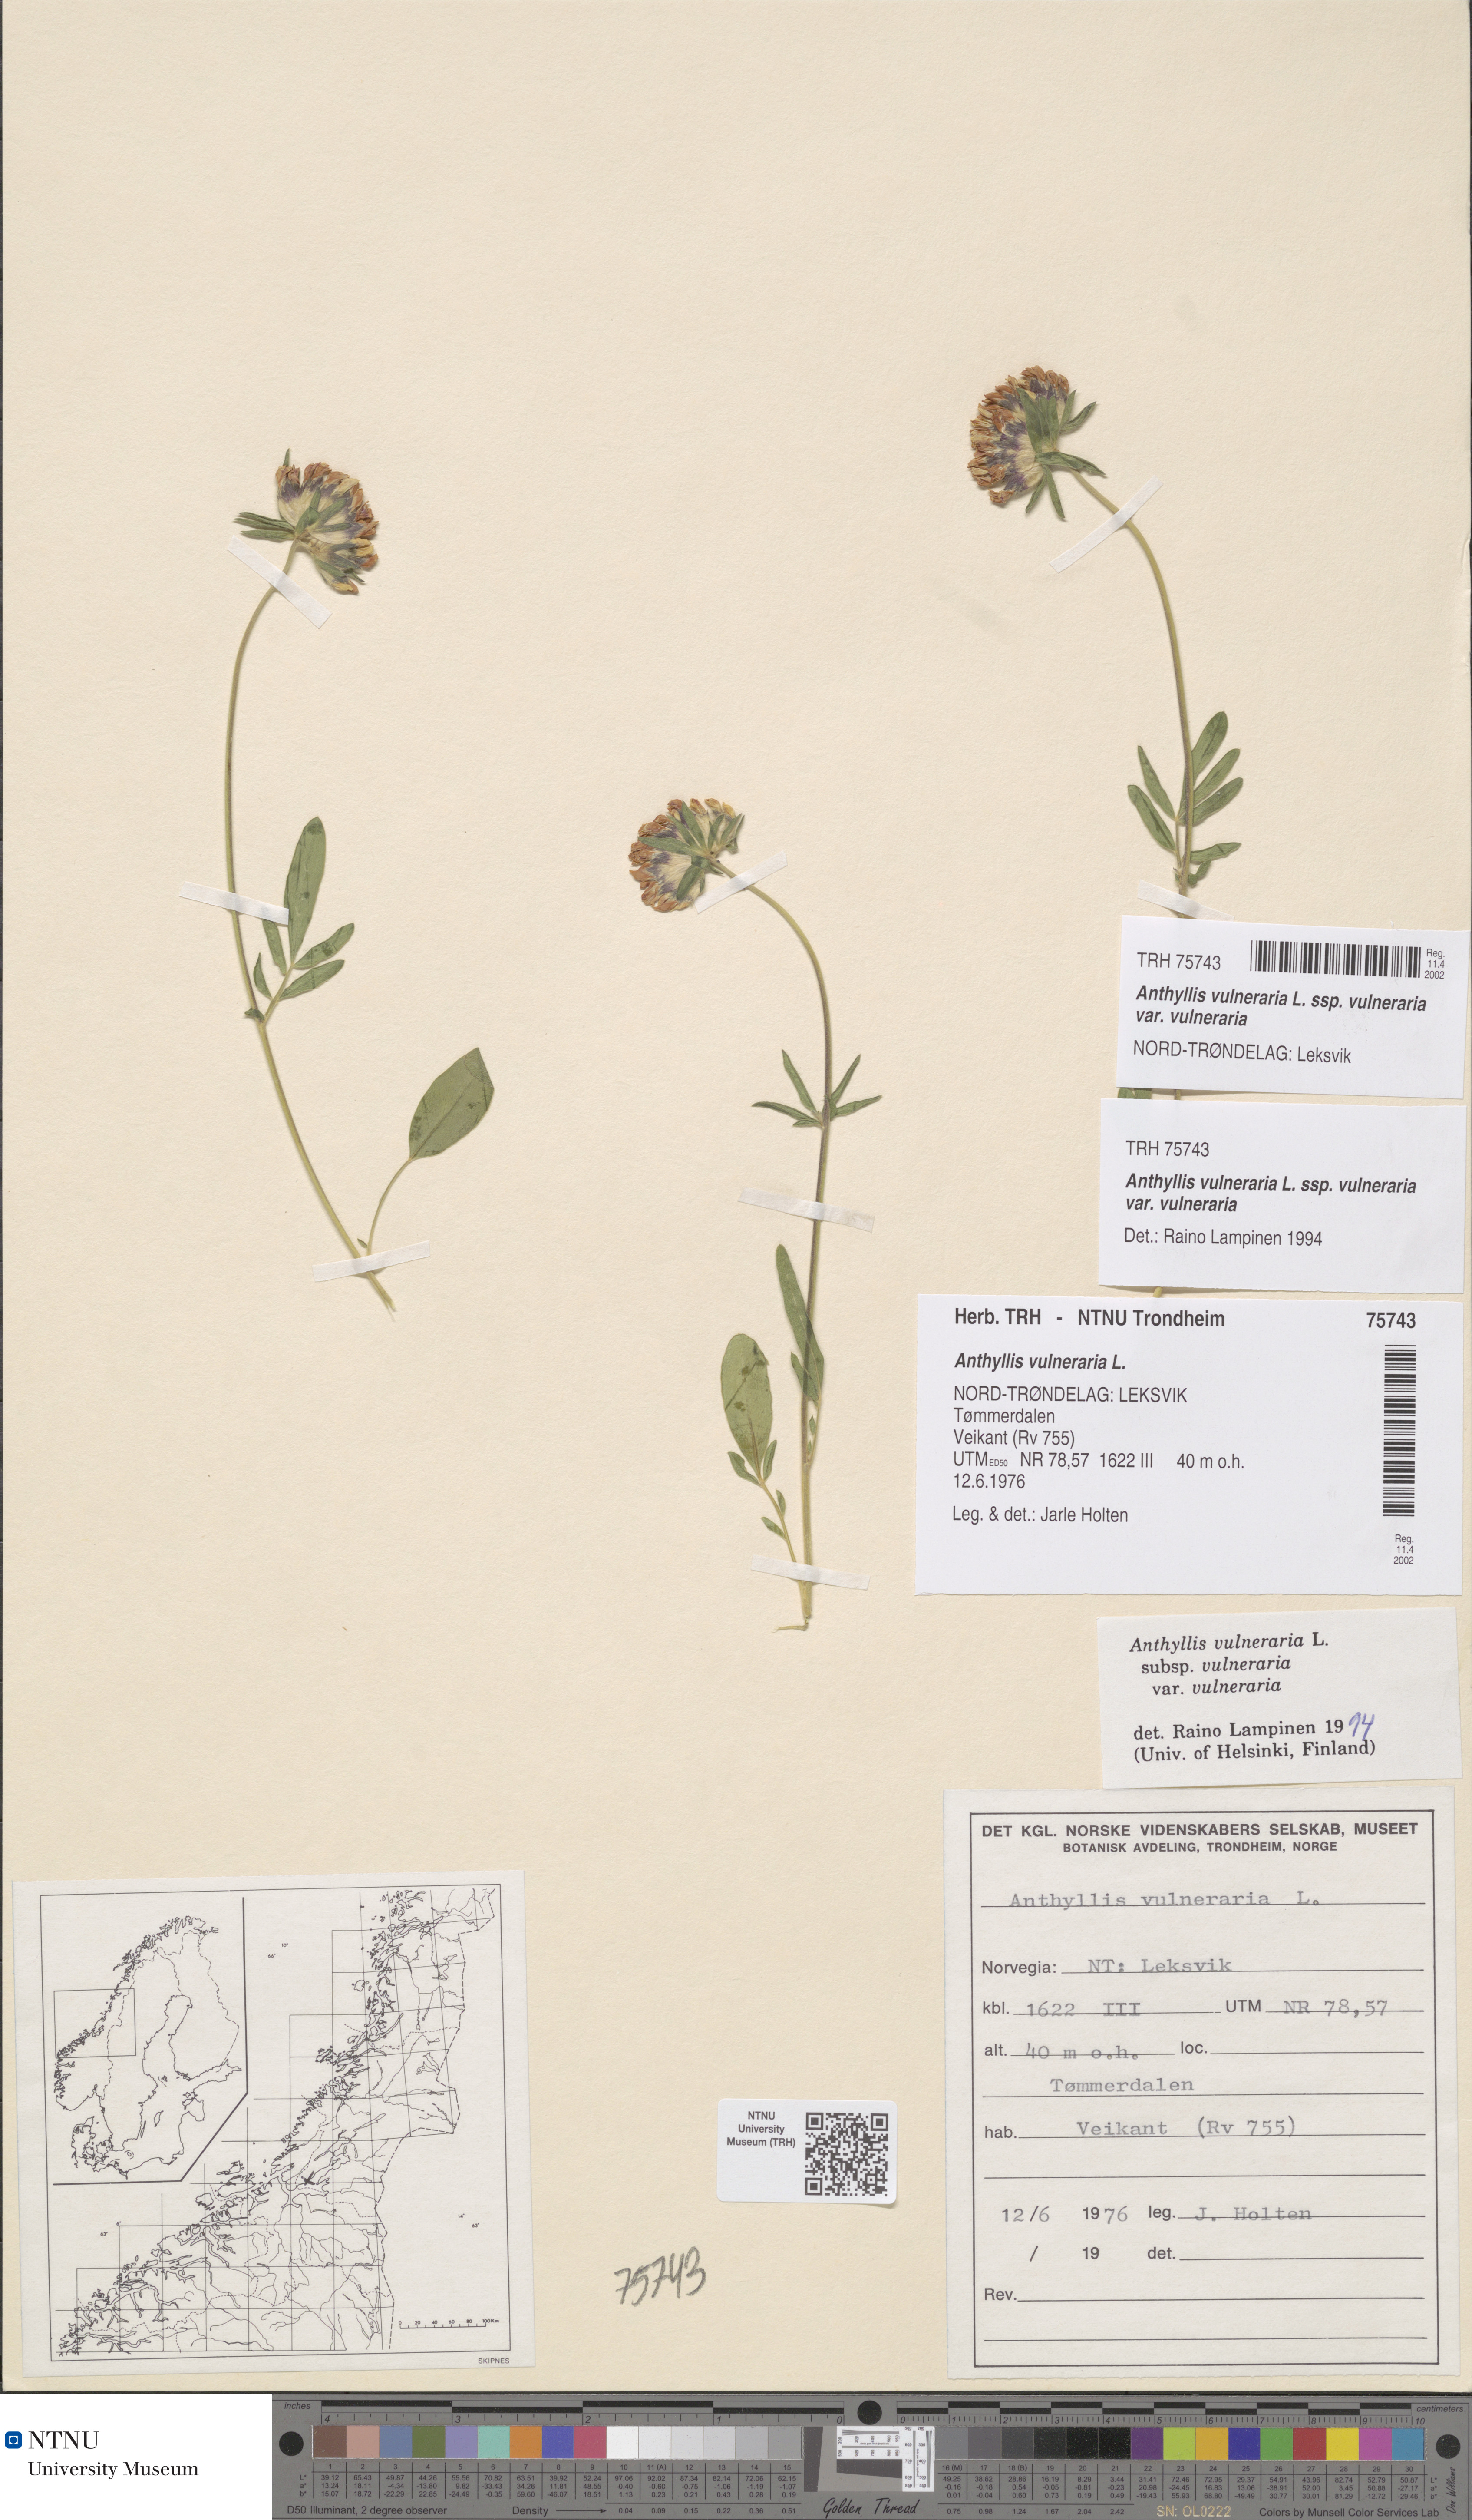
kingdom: Plantae
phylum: Tracheophyta
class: Magnoliopsida
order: Fabales
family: Fabaceae
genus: Anthyllis
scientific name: Anthyllis vulneraria
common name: Kidney vetch
